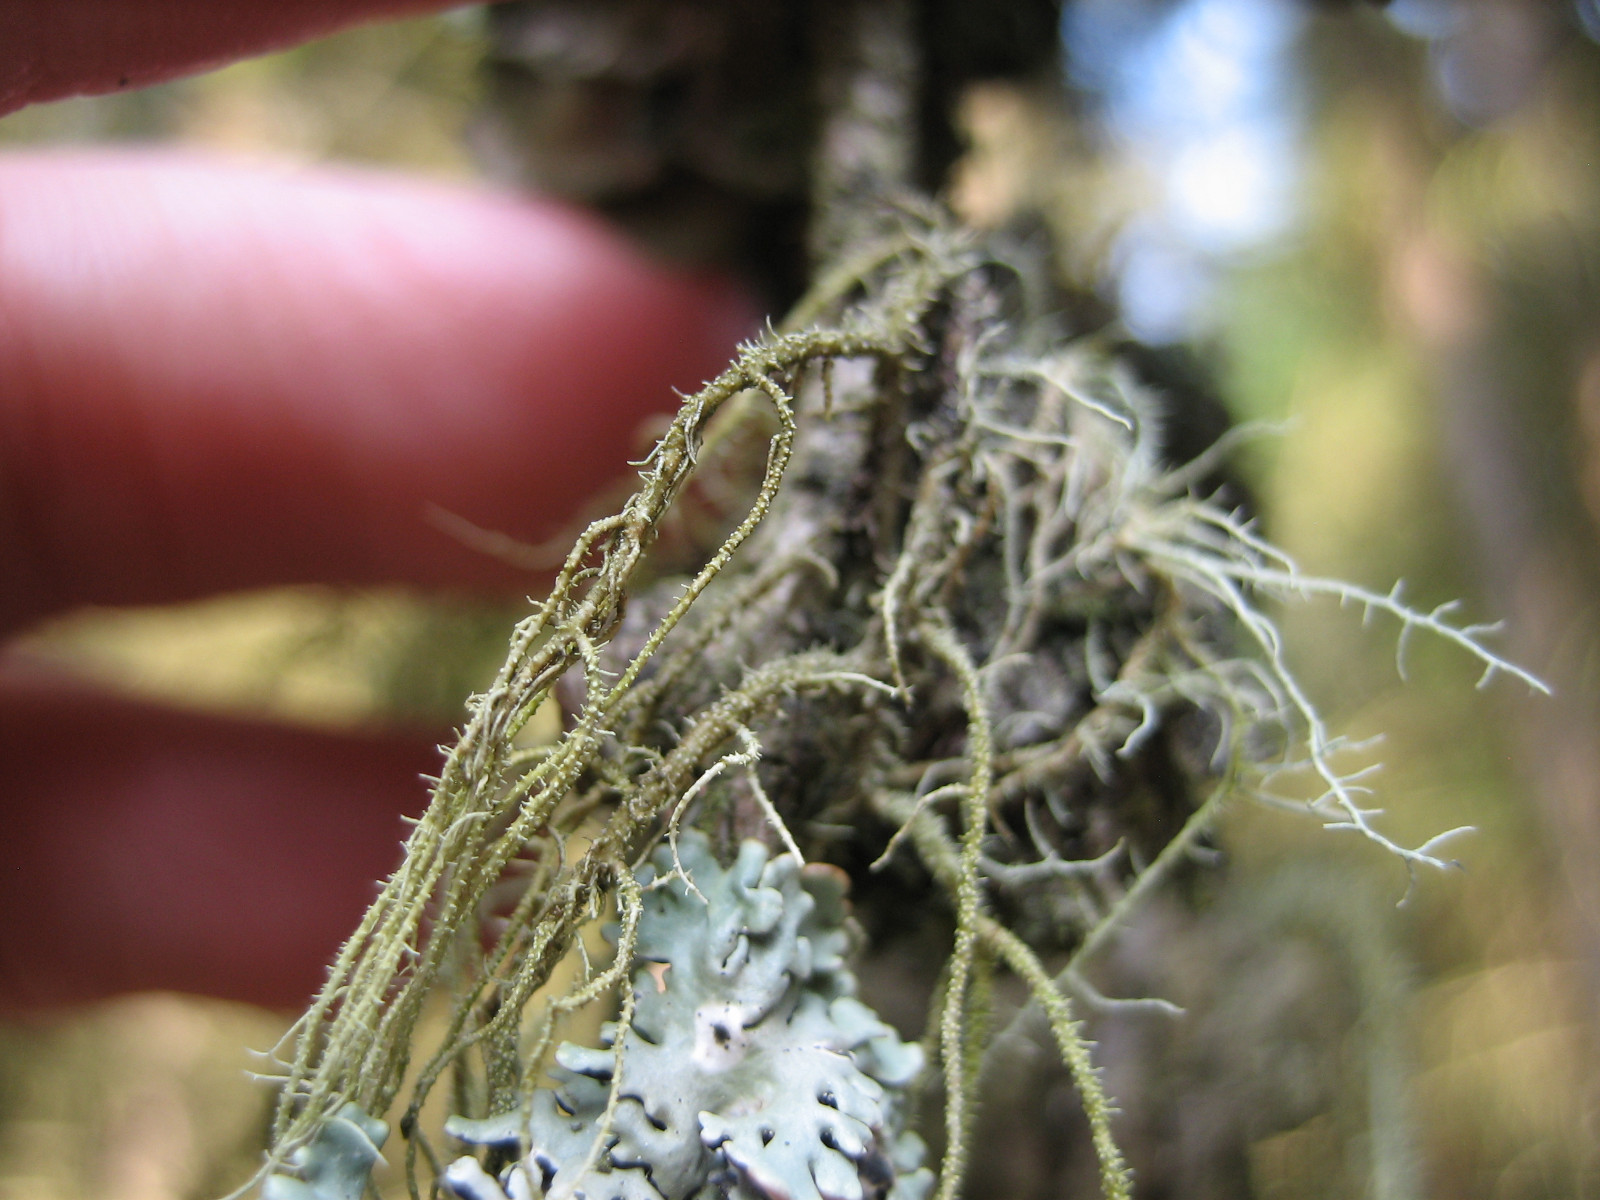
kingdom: Fungi
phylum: Ascomycota
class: Lecanoromycetes
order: Lecanorales
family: Parmeliaceae
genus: Usnea
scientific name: Usnea dasypoga
